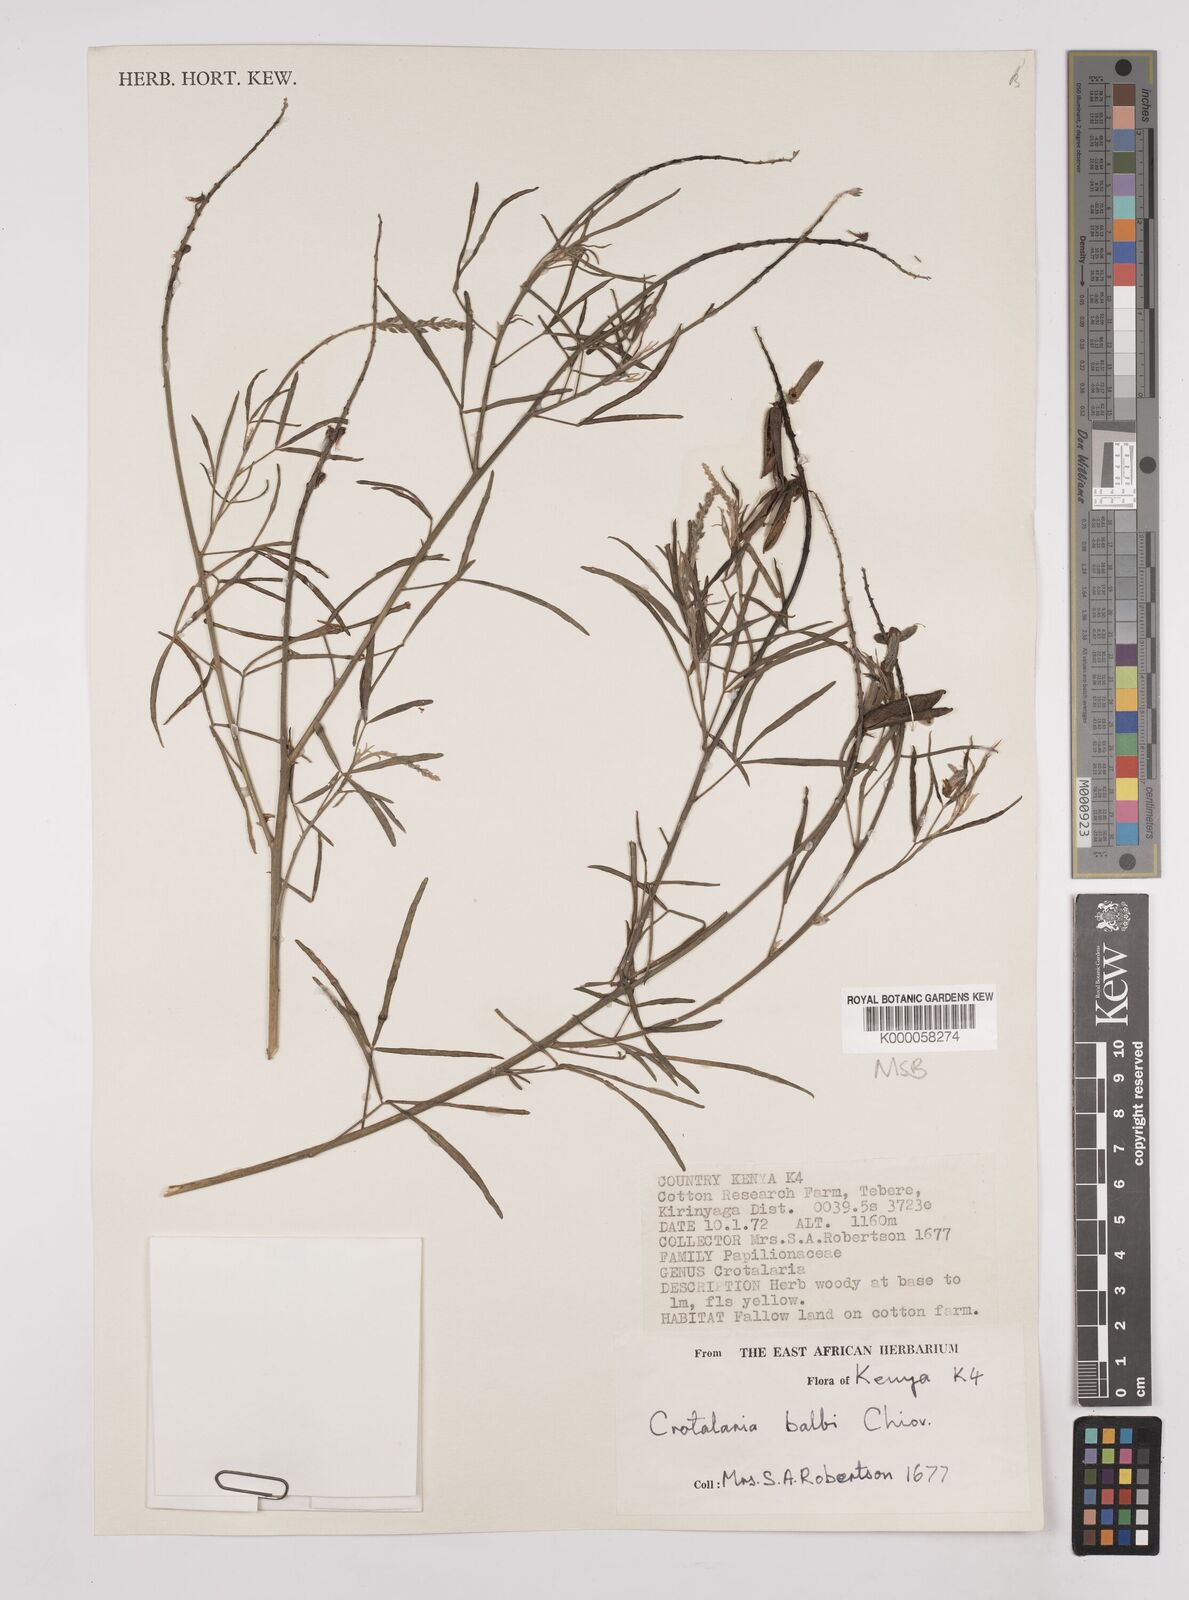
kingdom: Plantae
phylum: Tracheophyta
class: Magnoliopsida
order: Fabales
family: Fabaceae
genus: Crotalaria
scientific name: Crotalaria balbi
